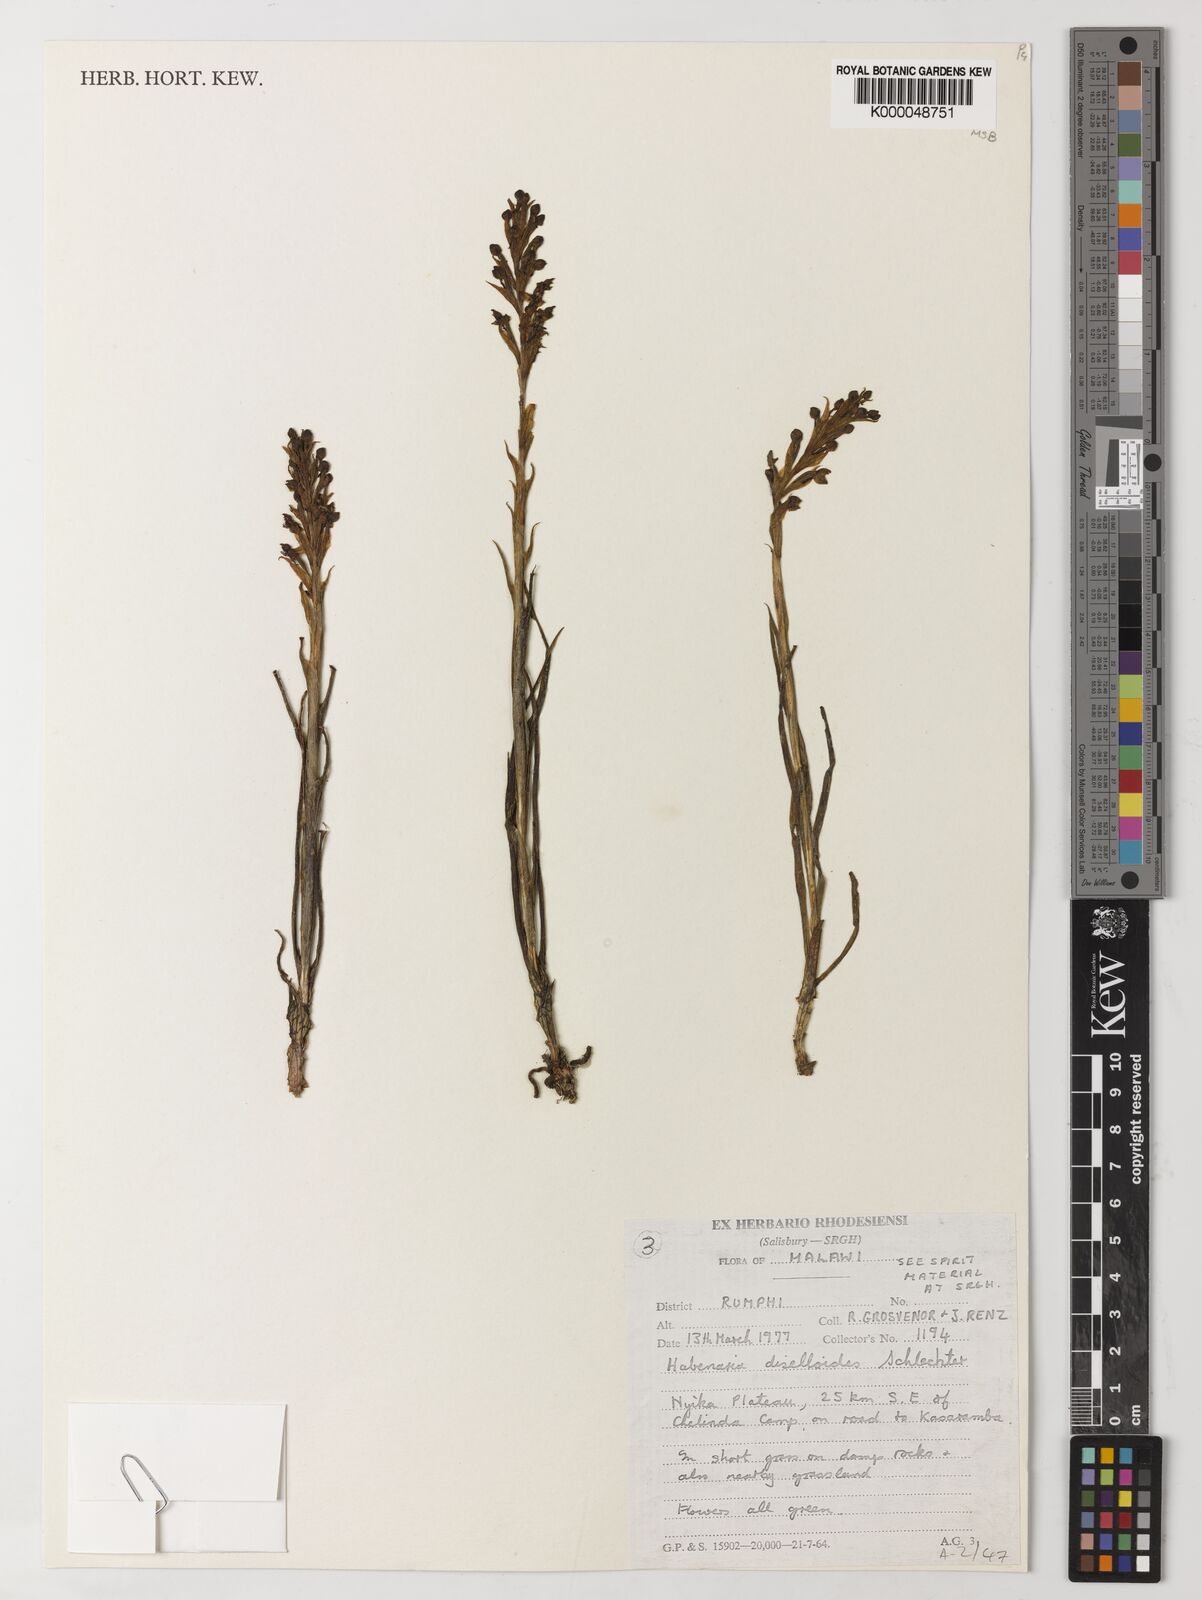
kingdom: Plantae
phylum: Tracheophyta
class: Liliopsida
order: Asparagales
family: Orchidaceae
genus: Habenaria
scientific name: Habenaria diselloides
